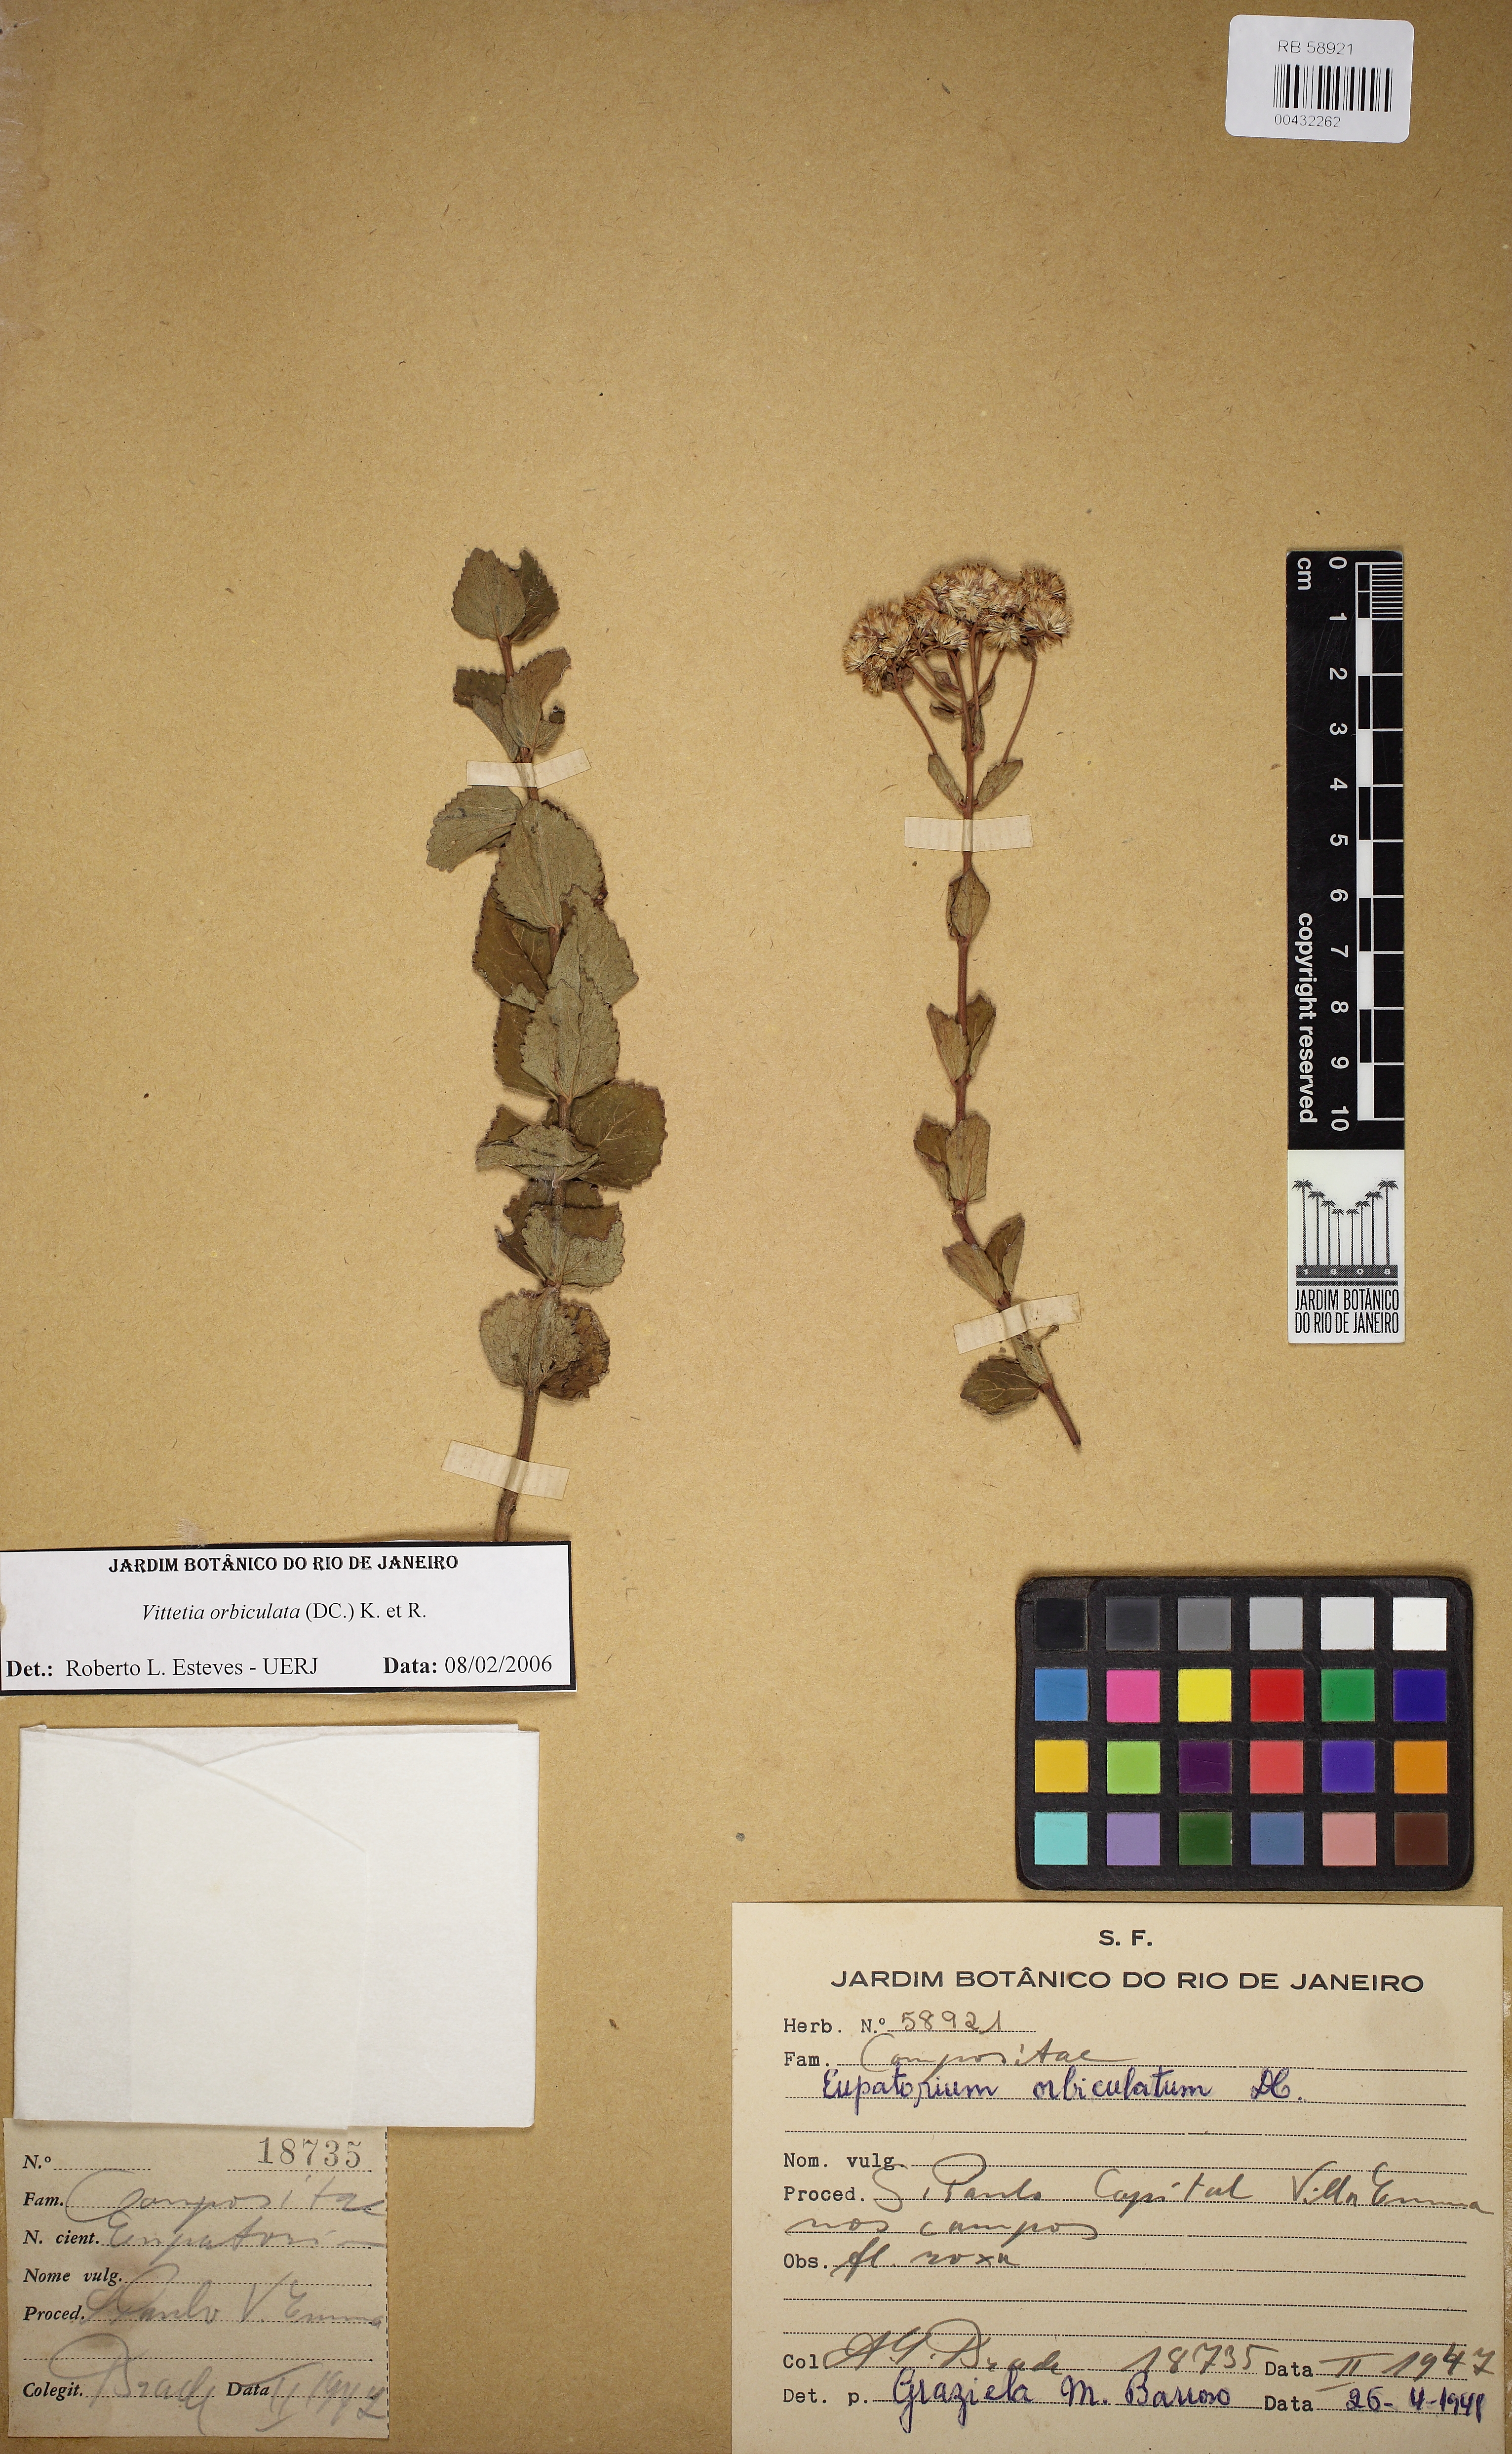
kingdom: Plantae
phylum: Tracheophyta
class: Magnoliopsida
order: Asterales
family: Asteraceae
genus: Vittetia
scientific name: Vittetia orbiculata
